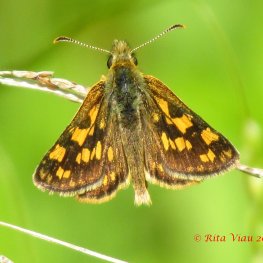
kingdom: Animalia
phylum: Arthropoda
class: Insecta
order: Lepidoptera
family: Hesperiidae
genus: Carterocephalus
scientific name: Carterocephalus palaemon
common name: Chequered Skipper
